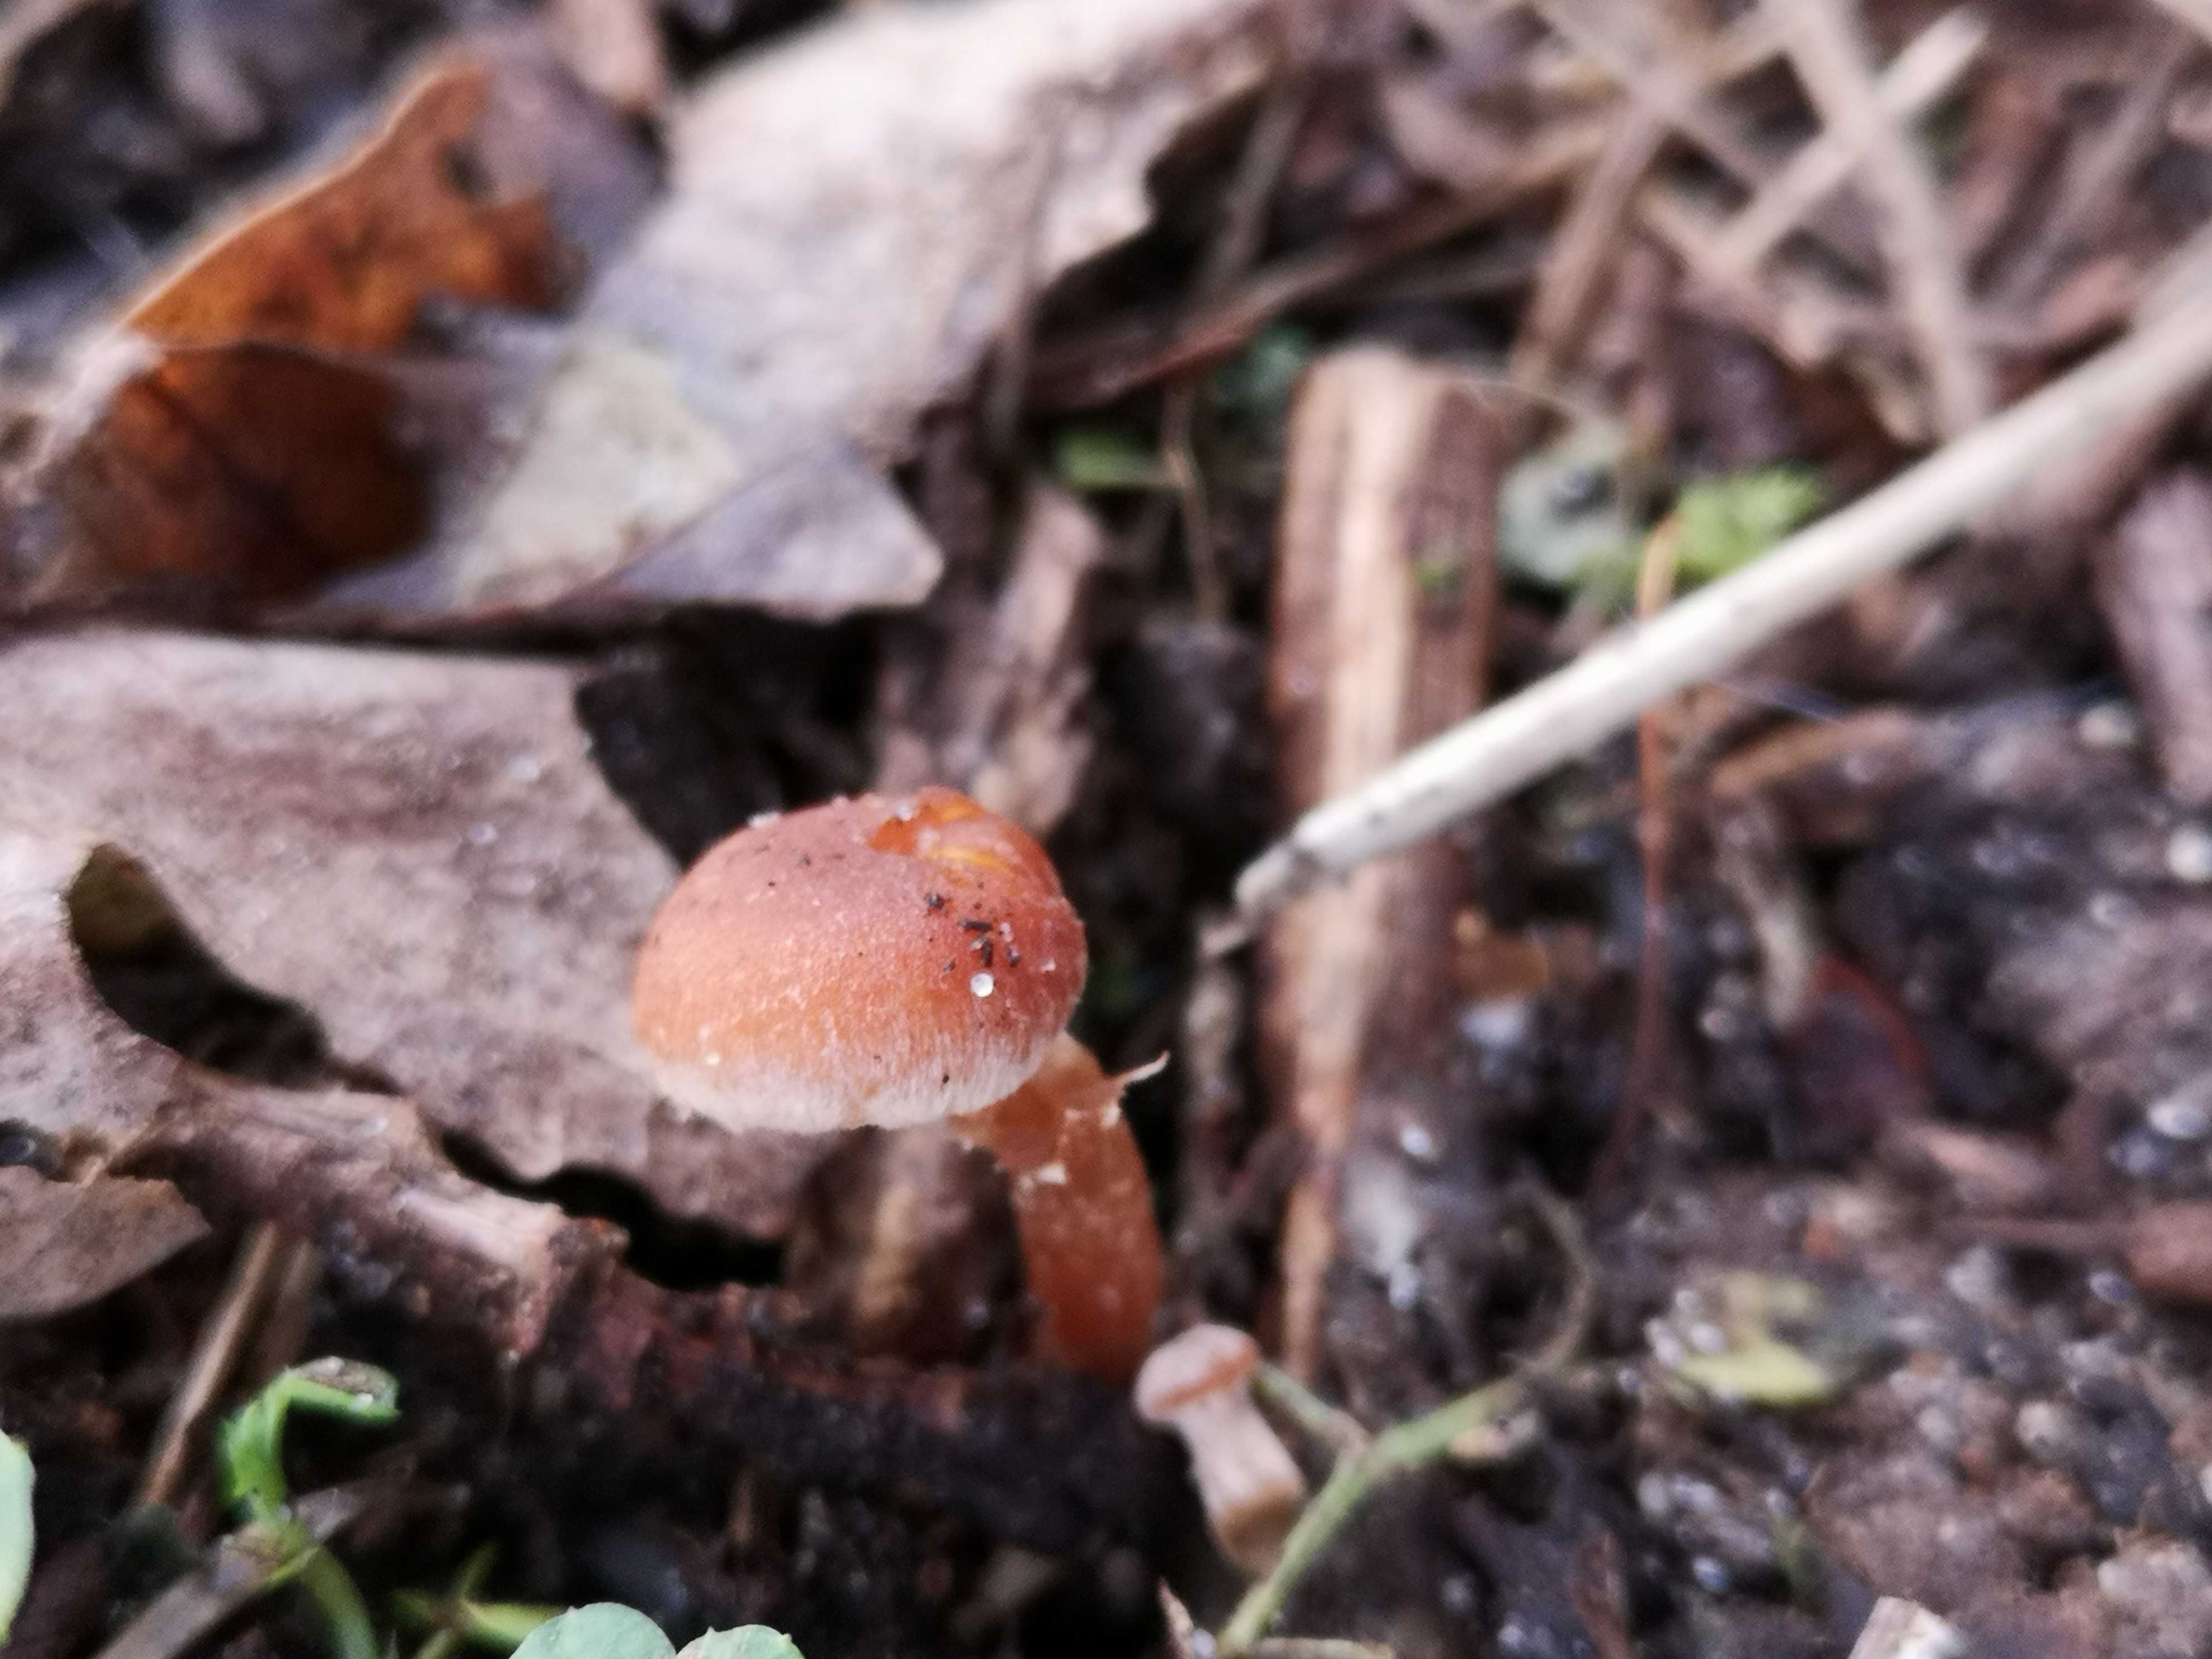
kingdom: Fungi
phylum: Basidiomycota
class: Agaricomycetes
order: Agaricales
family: Tubariaceae
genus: Tubaria
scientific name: Tubaria furfuracea
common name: kliddet fnughat
